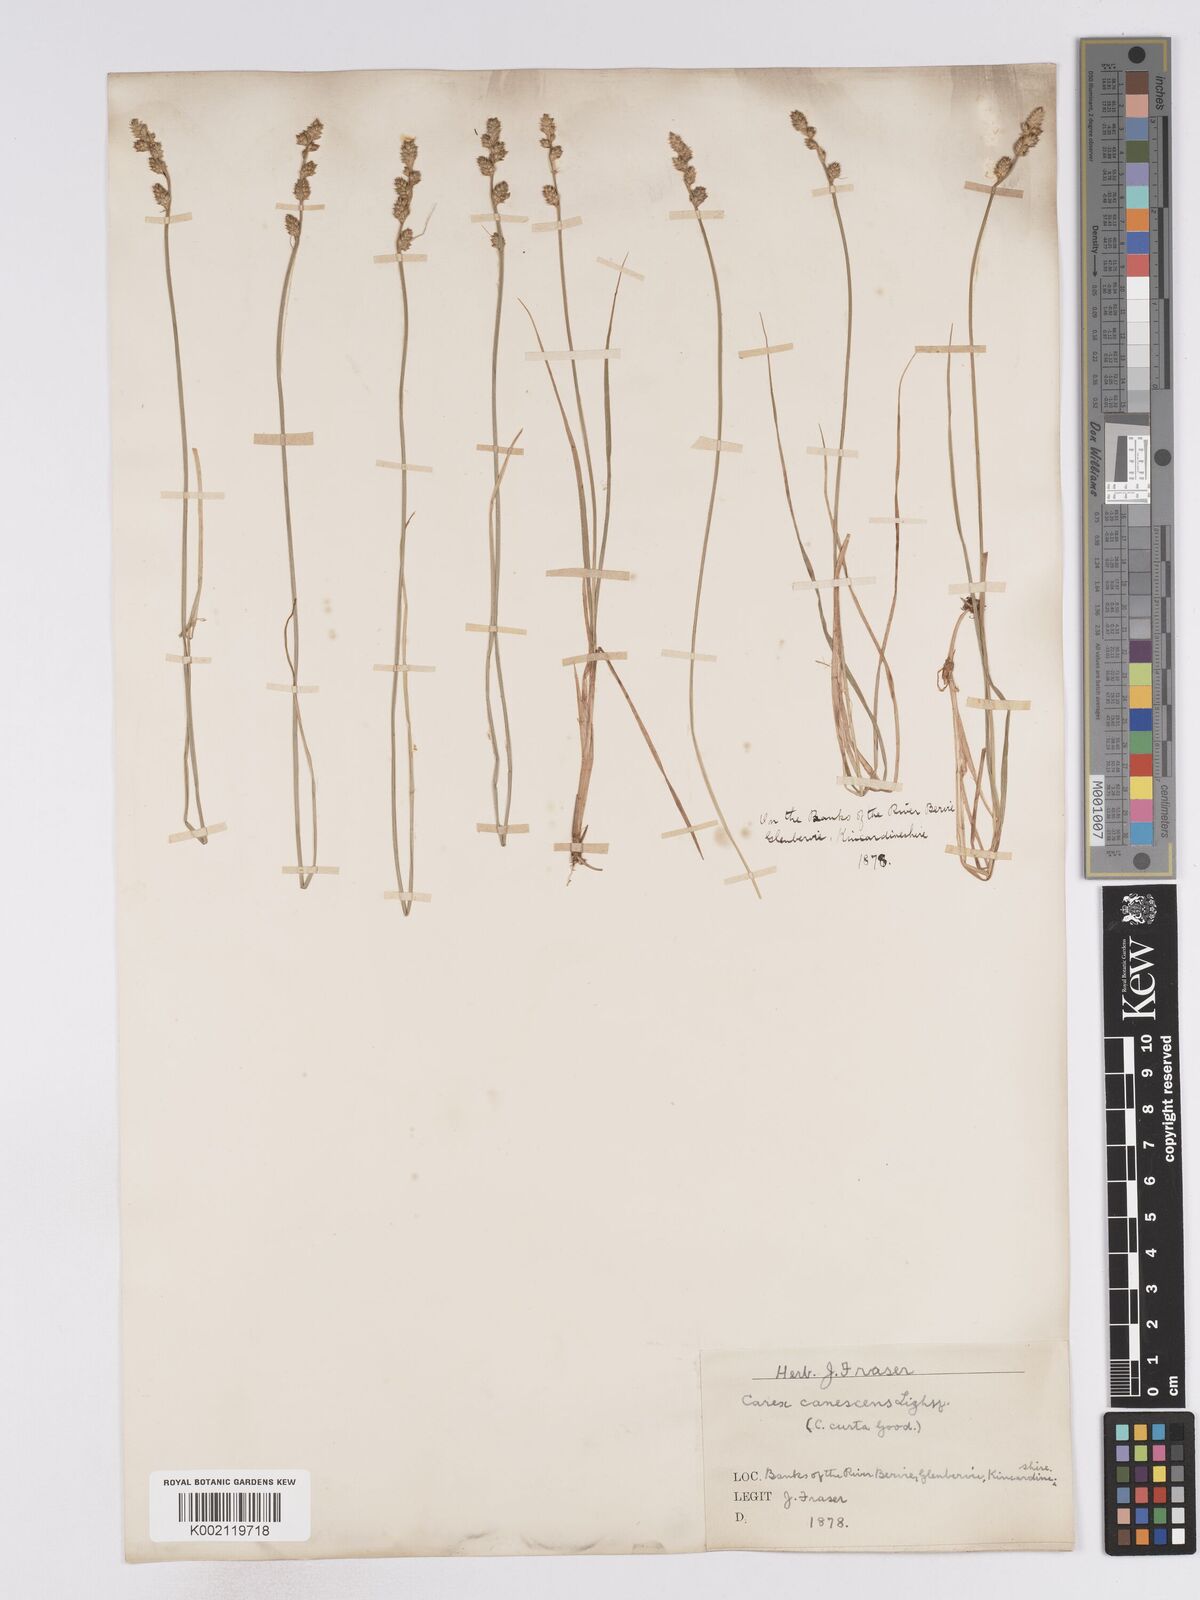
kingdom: Plantae
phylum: Tracheophyta
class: Liliopsida
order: Poales
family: Cyperaceae
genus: Carex
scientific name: Carex curta
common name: White sedge
